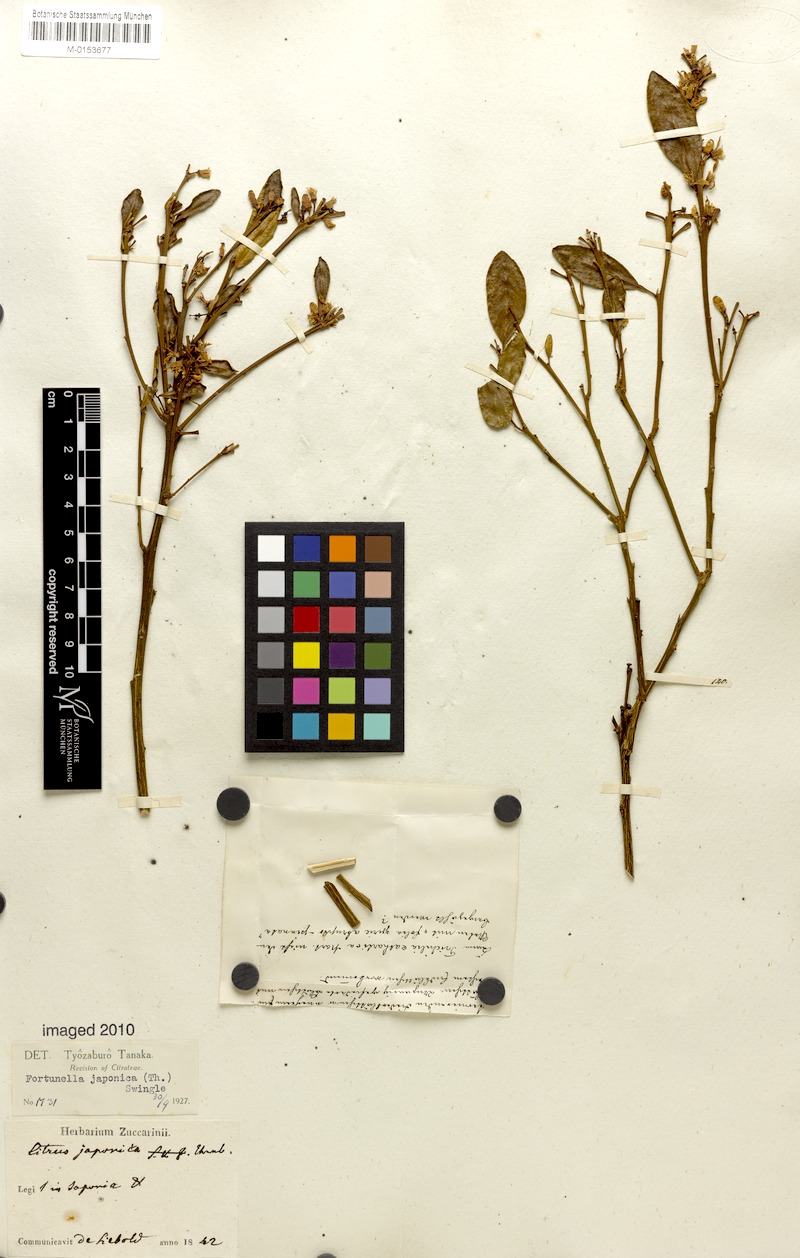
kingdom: Plantae
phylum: Tracheophyta
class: Magnoliopsida
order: Sapindales
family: Rutaceae
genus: Citrus
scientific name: Citrus japonica
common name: Kumquat
